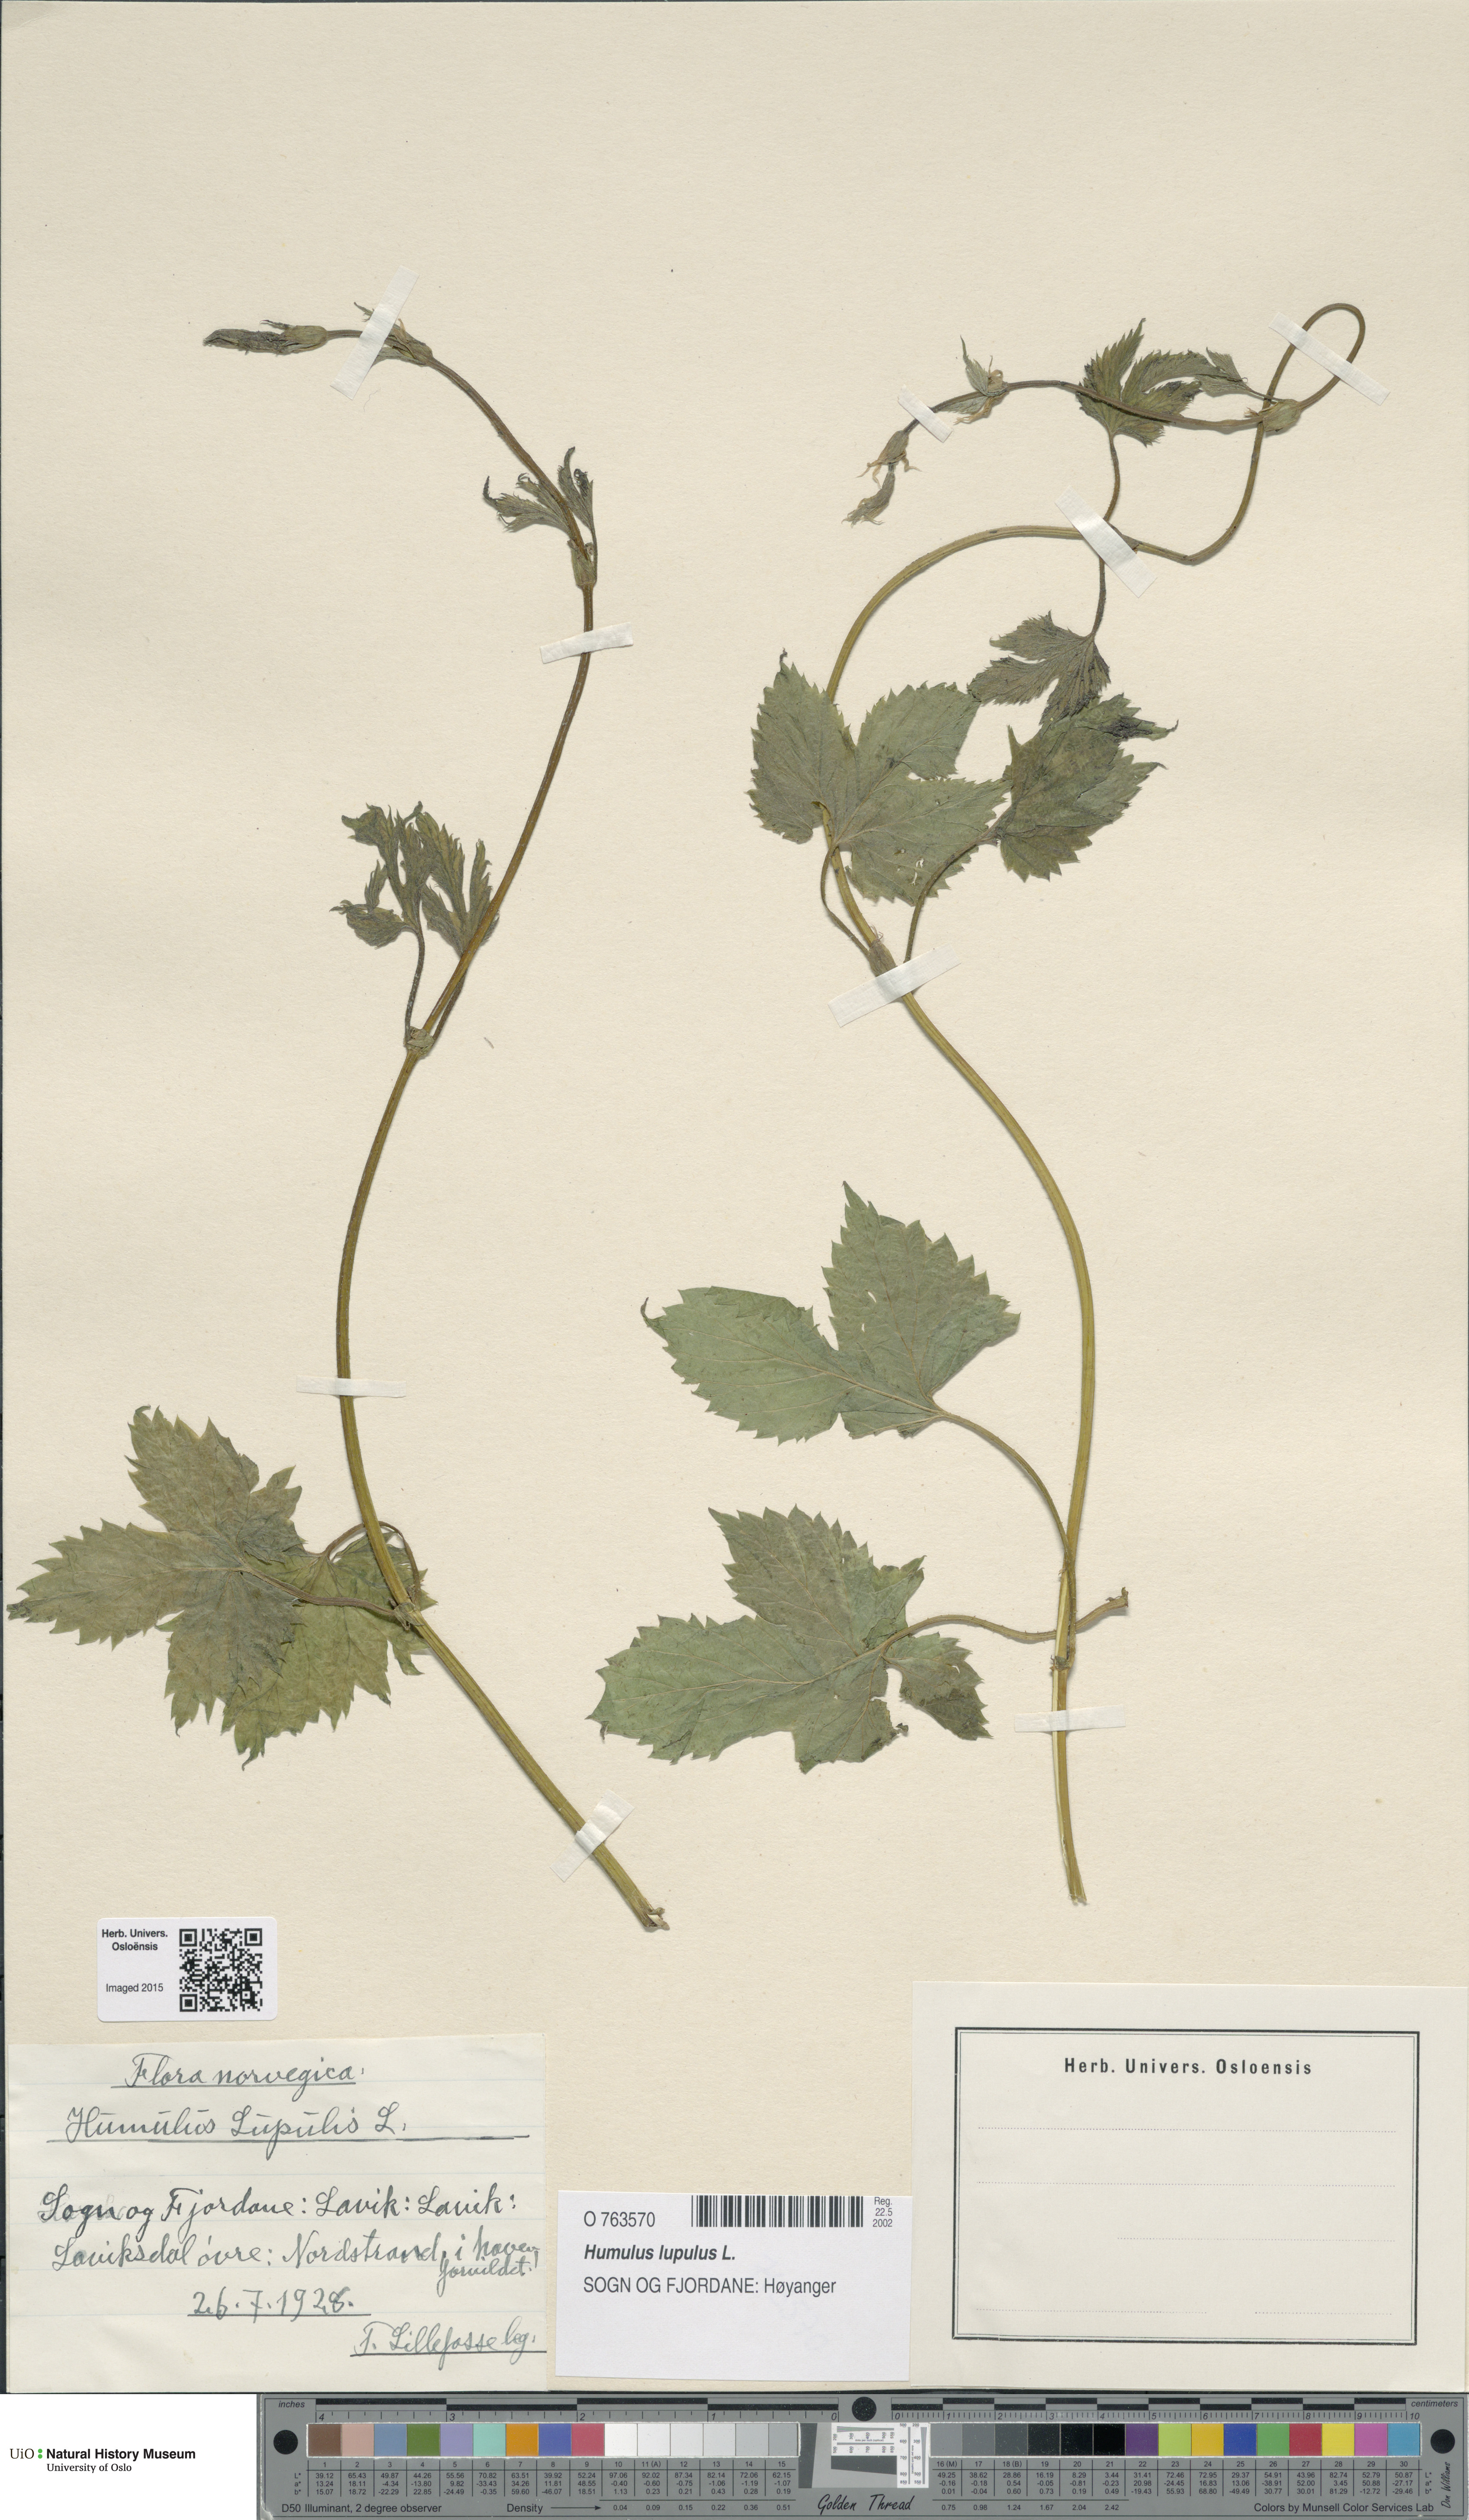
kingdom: Plantae
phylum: Tracheophyta
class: Magnoliopsida
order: Rosales
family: Cannabaceae
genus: Humulus
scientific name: Humulus lupulus
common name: Hop
